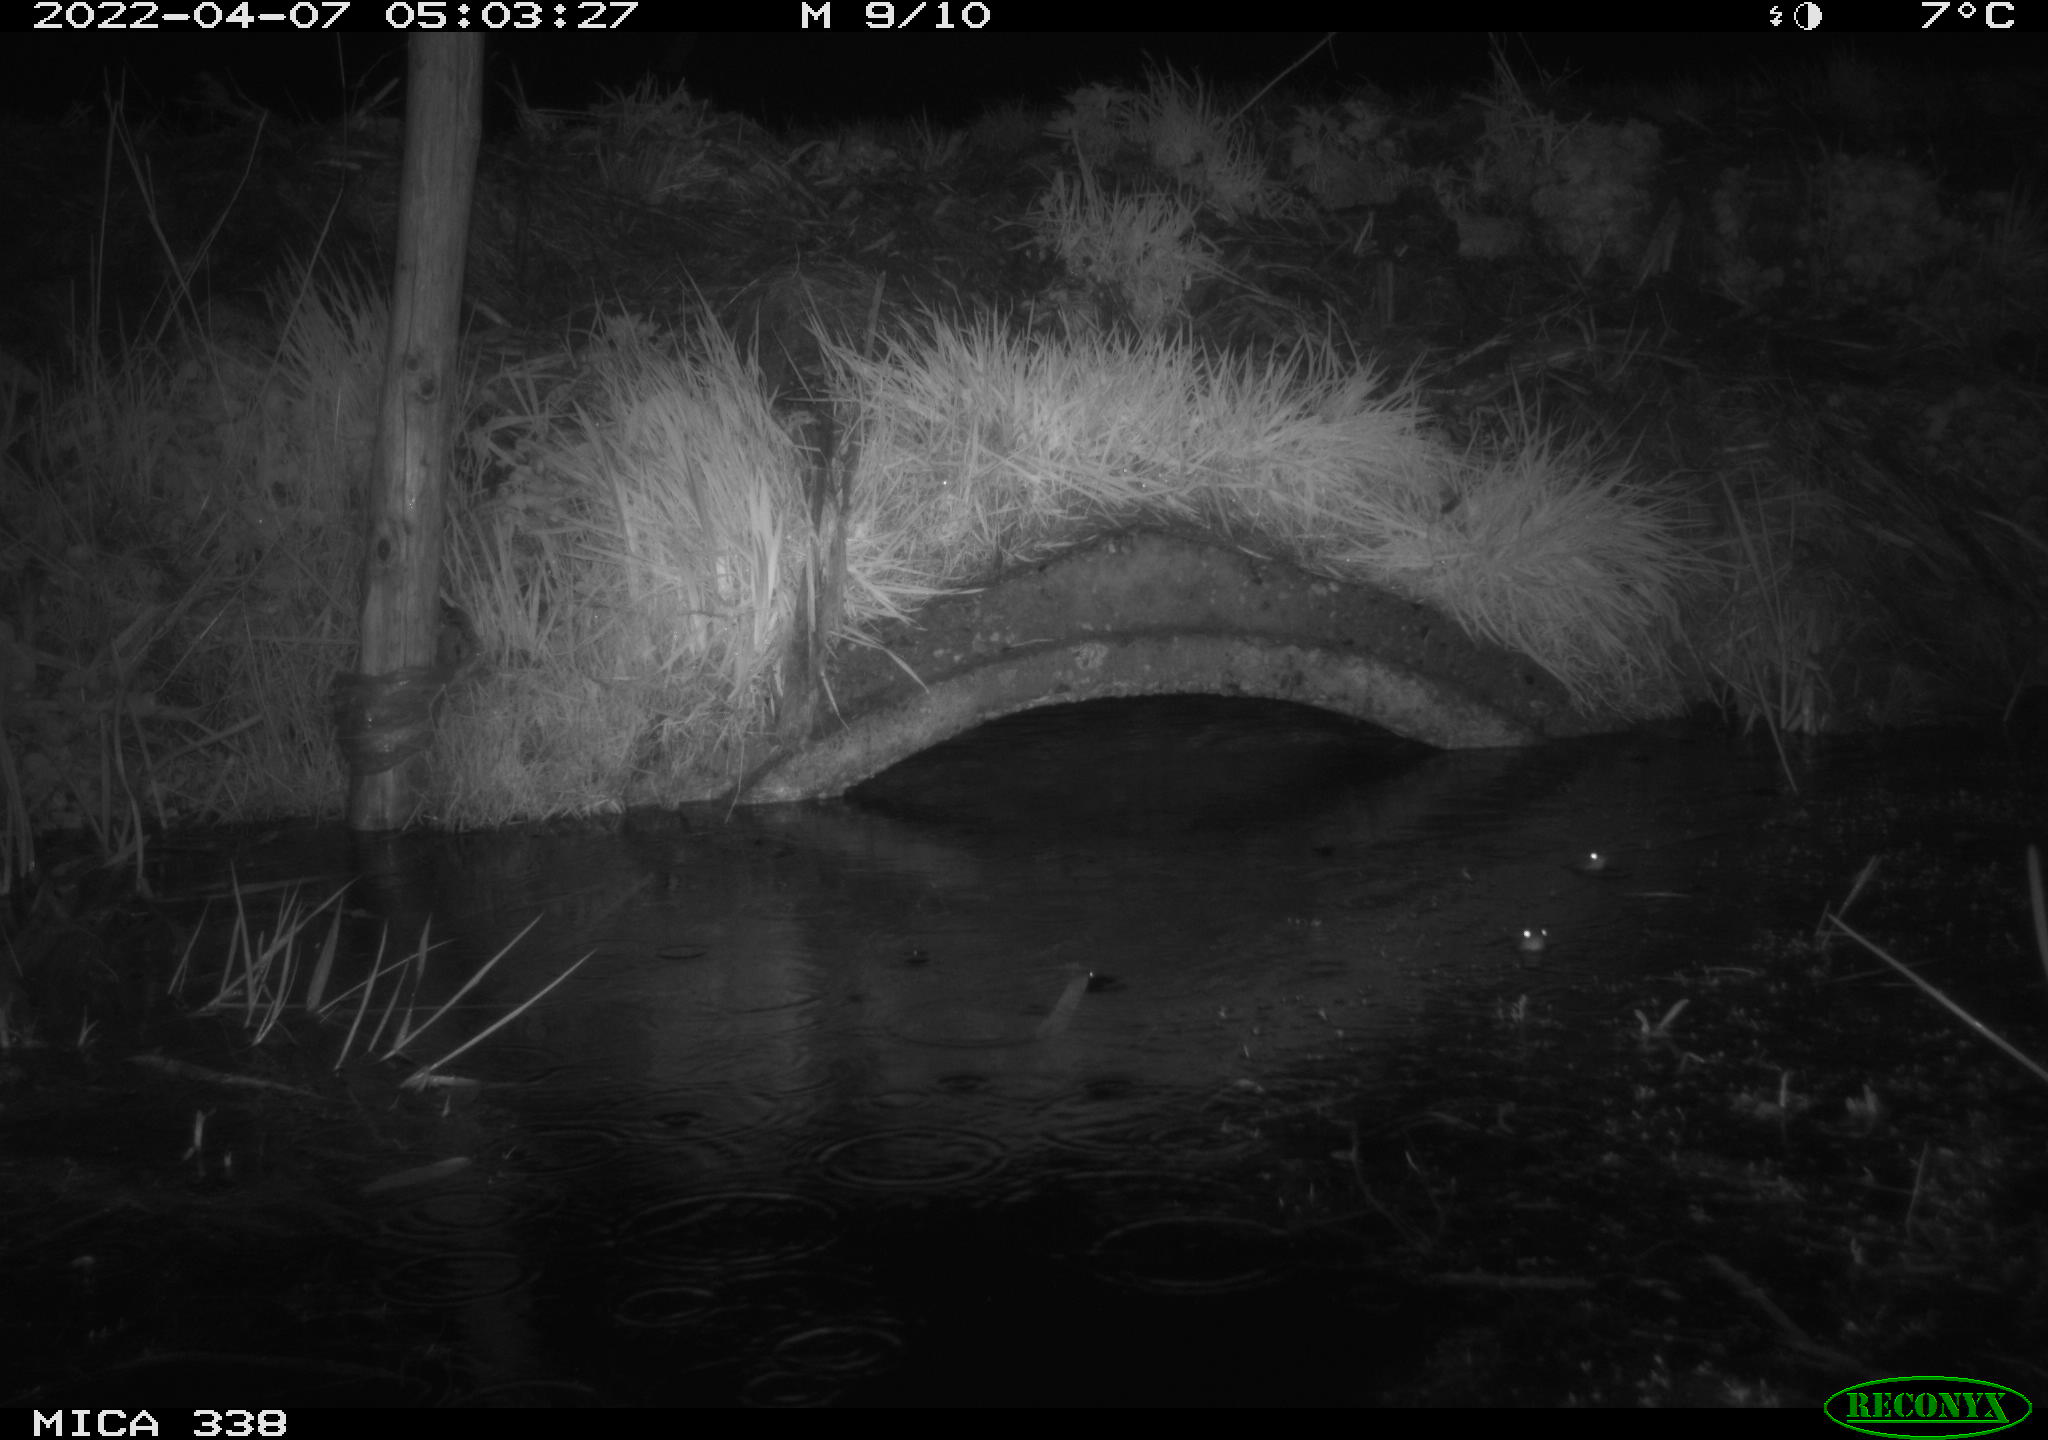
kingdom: Animalia
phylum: Chordata
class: Mammalia
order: Rodentia
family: Muridae
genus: Rattus
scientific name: Rattus norvegicus
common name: Brown rat
